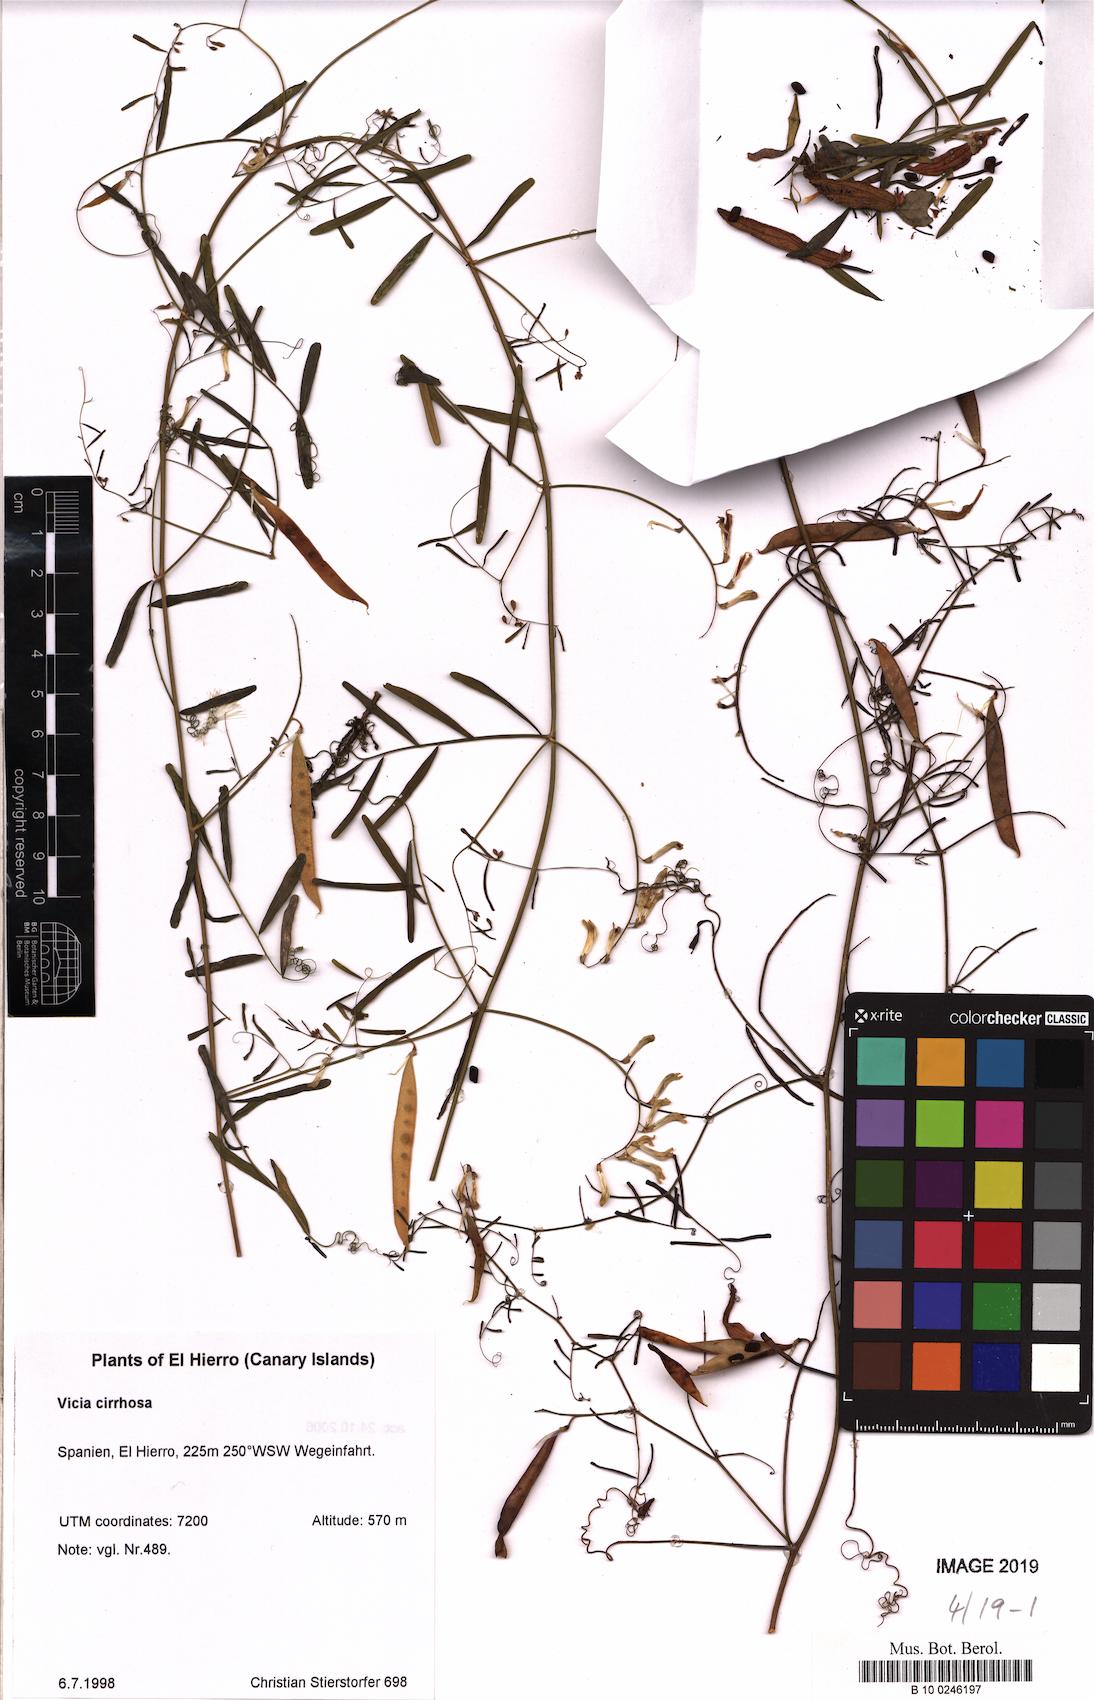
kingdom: Plantae
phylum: Tracheophyta
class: Magnoliopsida
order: Fabales
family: Fabaceae
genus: Vicia
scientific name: Vicia aphylla
